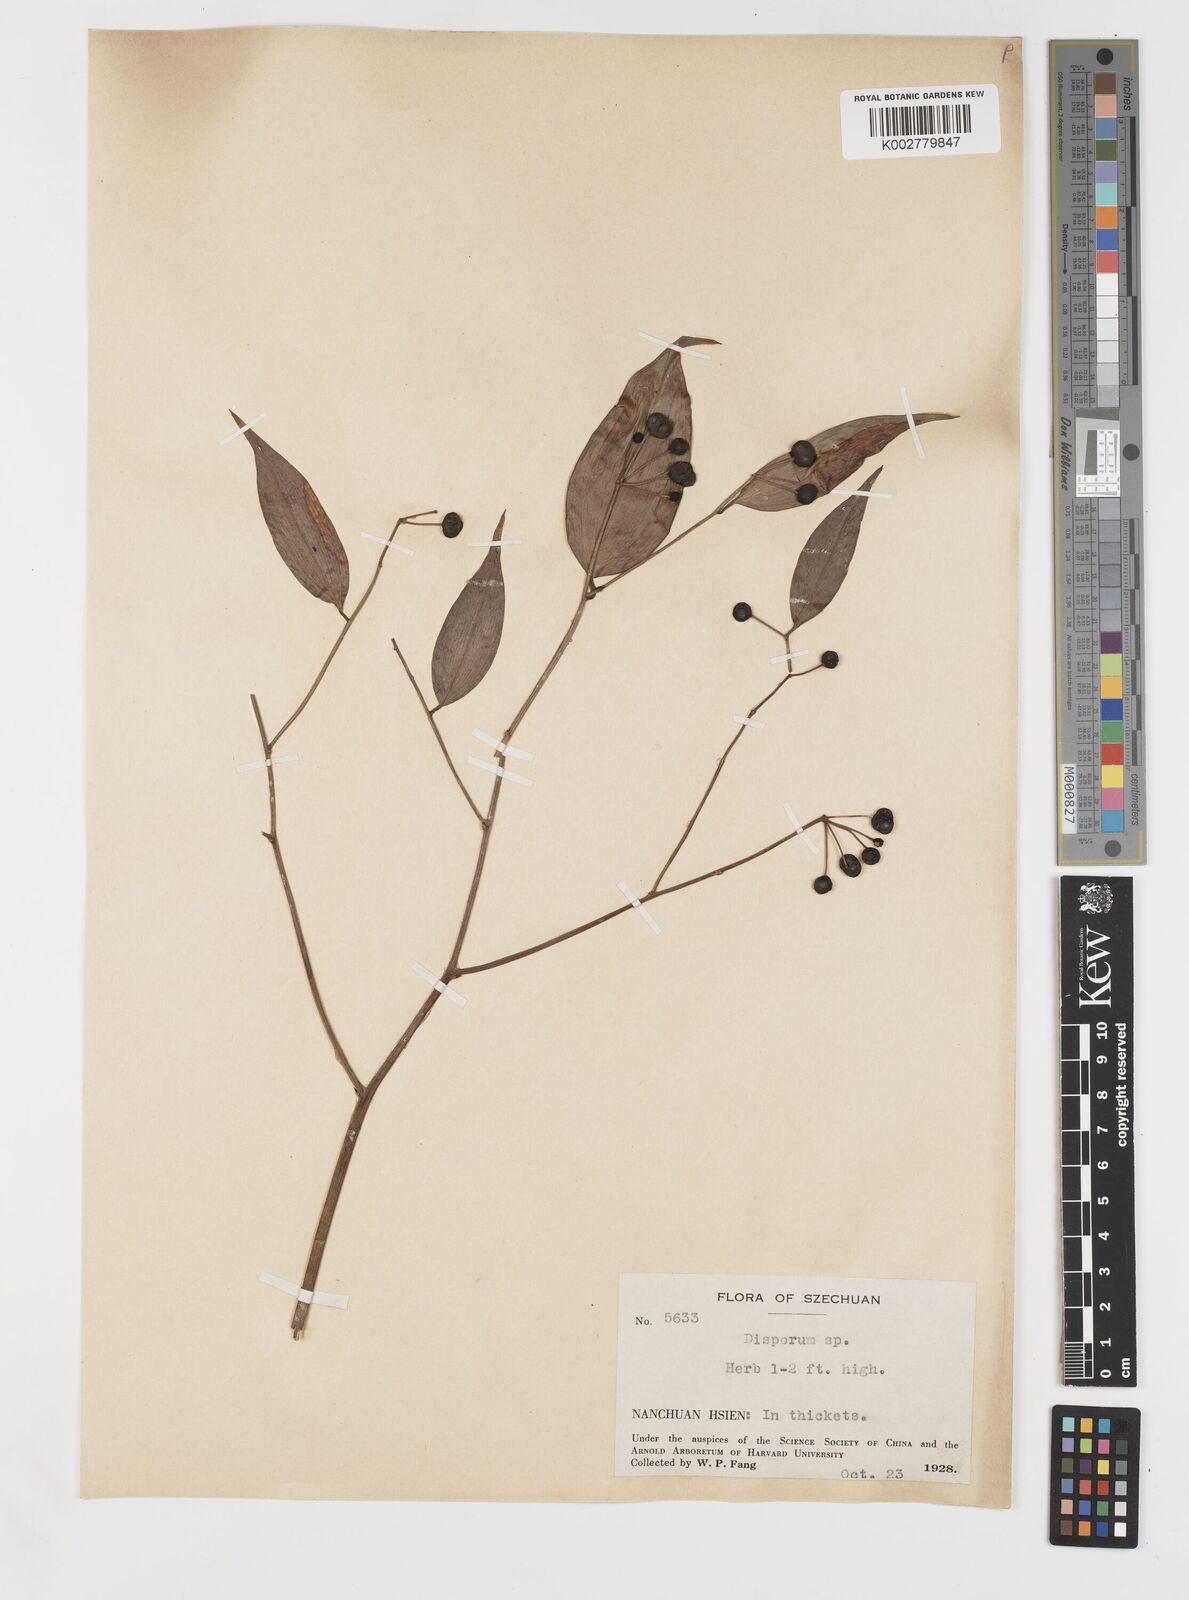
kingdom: Plantae
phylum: Tracheophyta
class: Liliopsida
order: Liliales
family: Colchicaceae
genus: Disporum
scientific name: Disporum sessile
